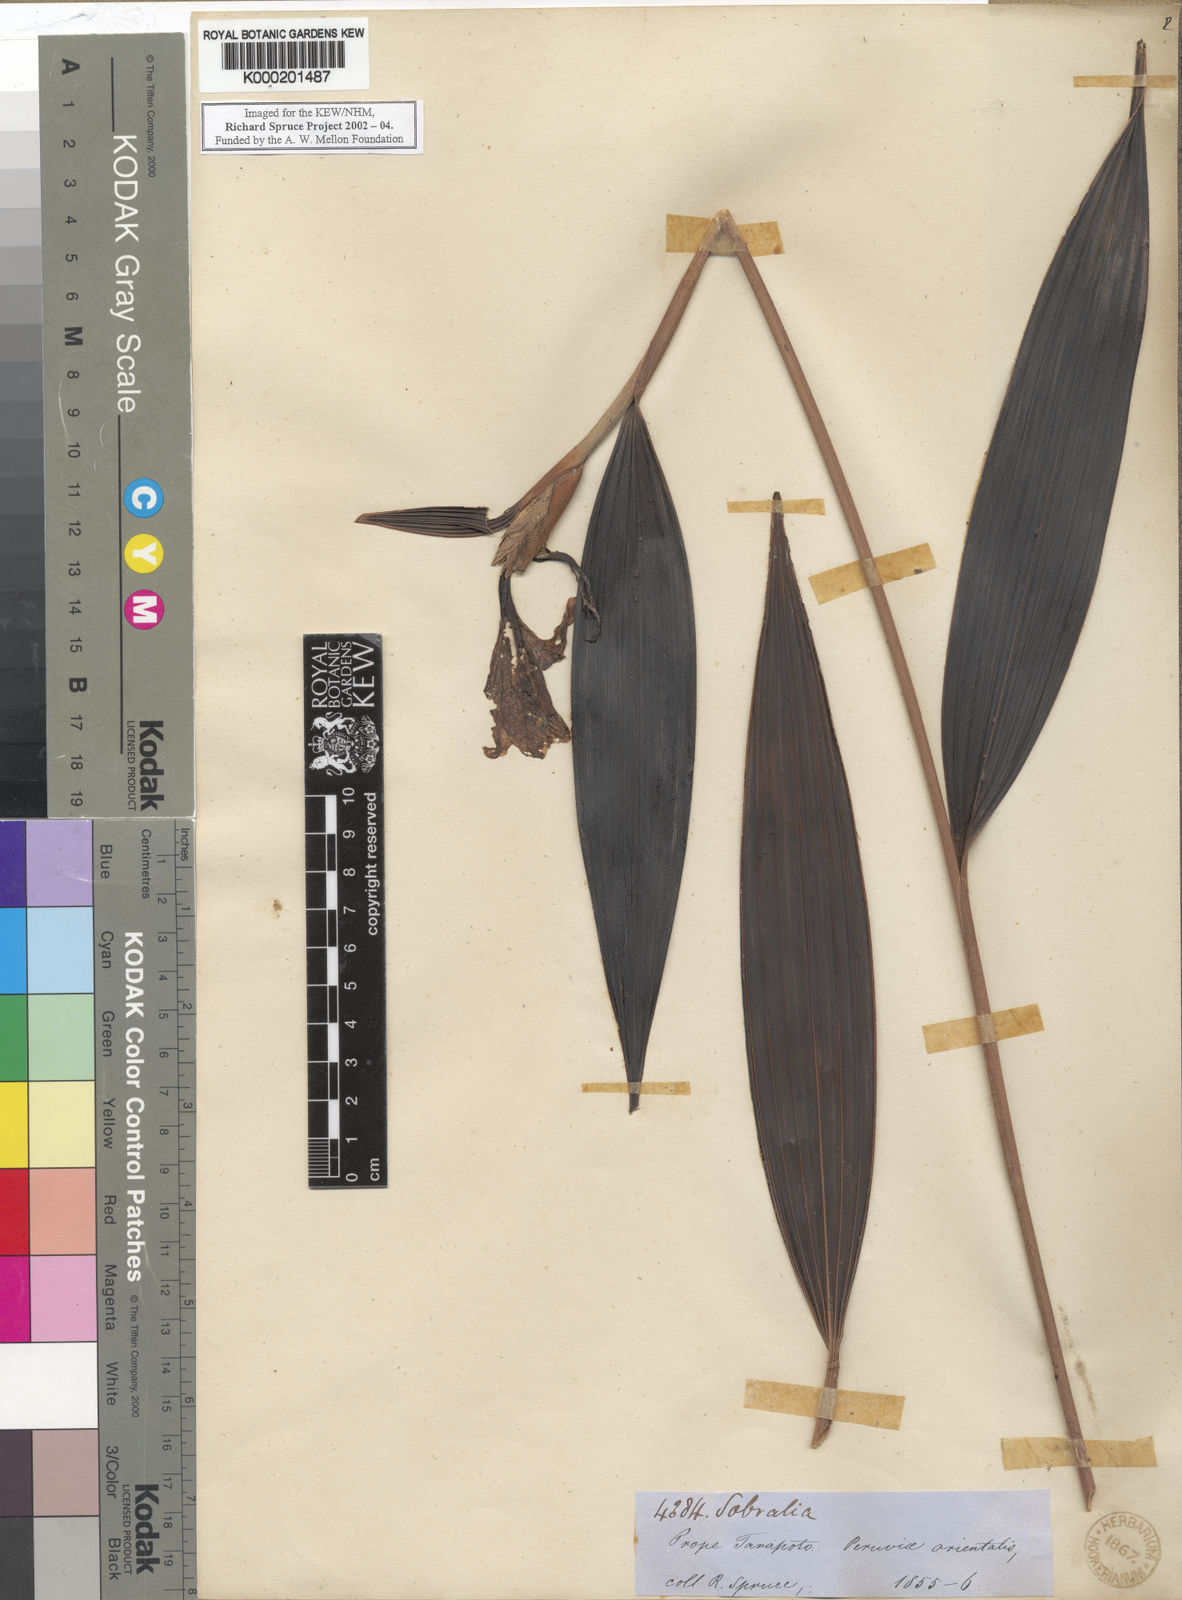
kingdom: Plantae
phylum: Tracheophyta
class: Liliopsida
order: Asparagales
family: Orchidaceae
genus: Sobralia
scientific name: Sobralia violacea
